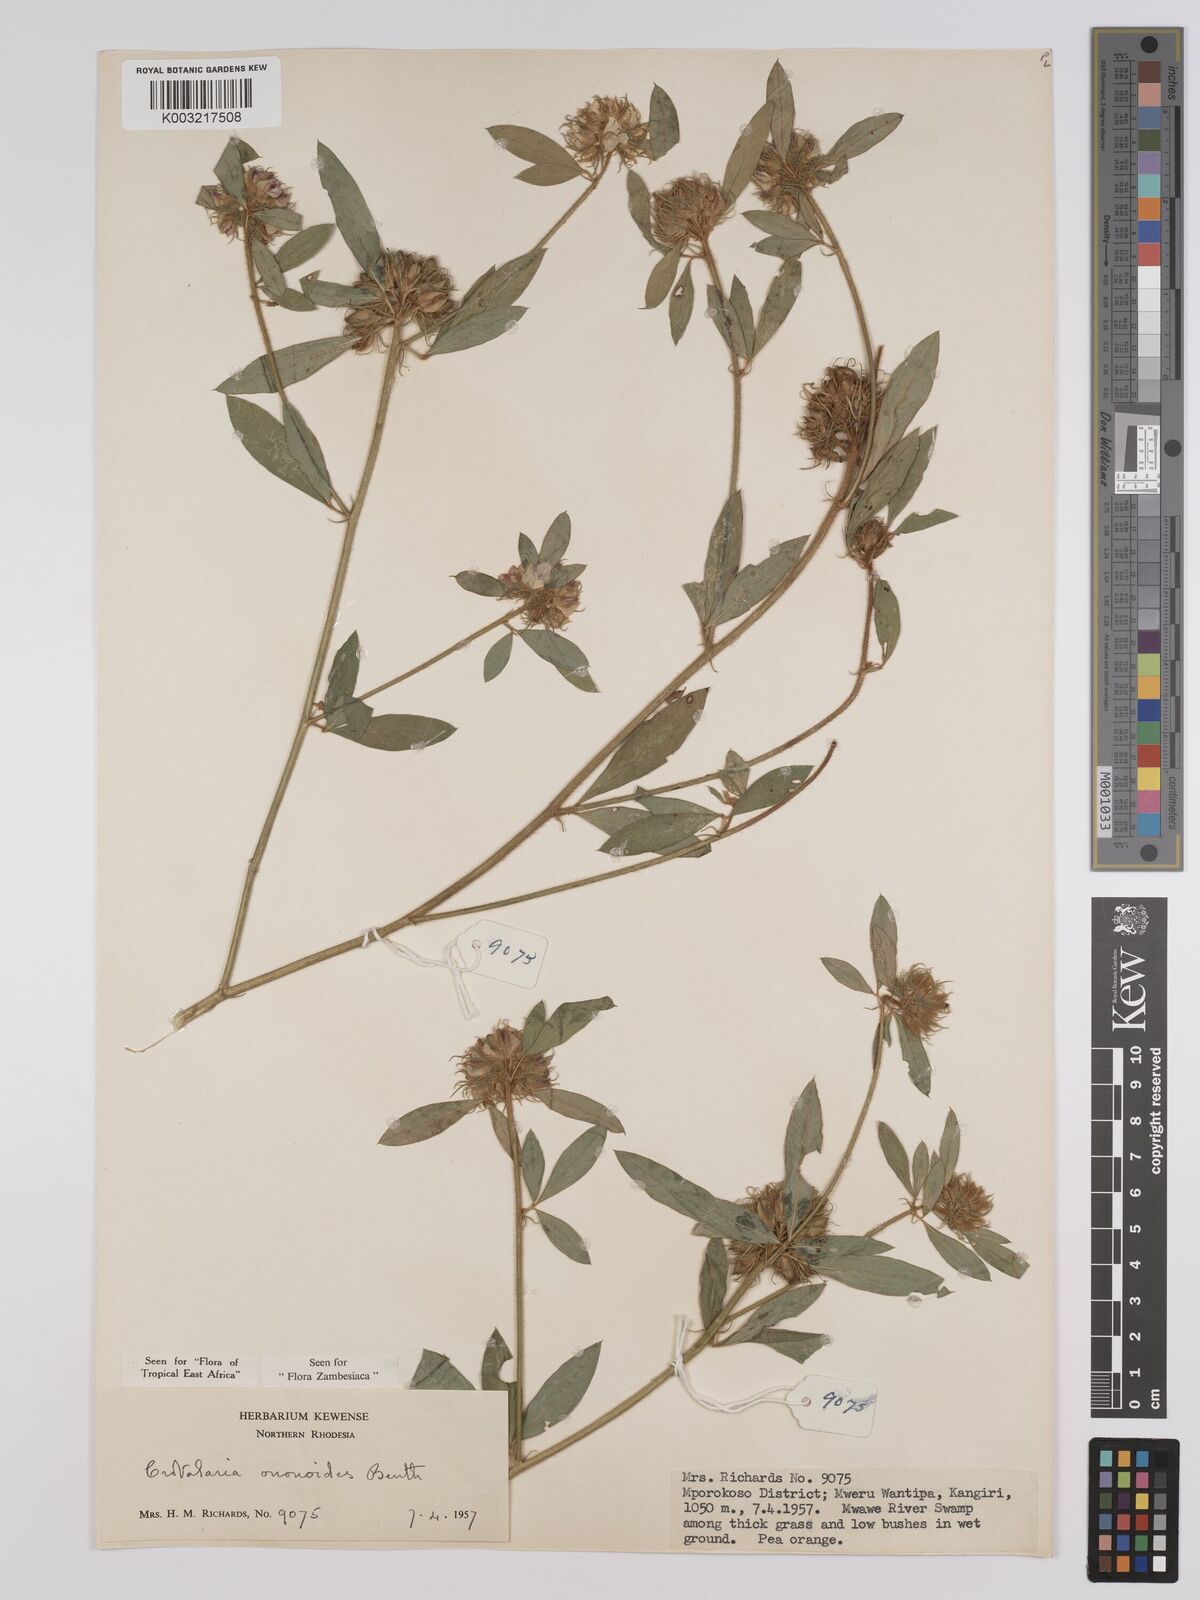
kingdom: Plantae
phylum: Tracheophyta
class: Magnoliopsida
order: Fabales
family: Fabaceae
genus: Crotalaria
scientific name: Crotalaria ononoides
